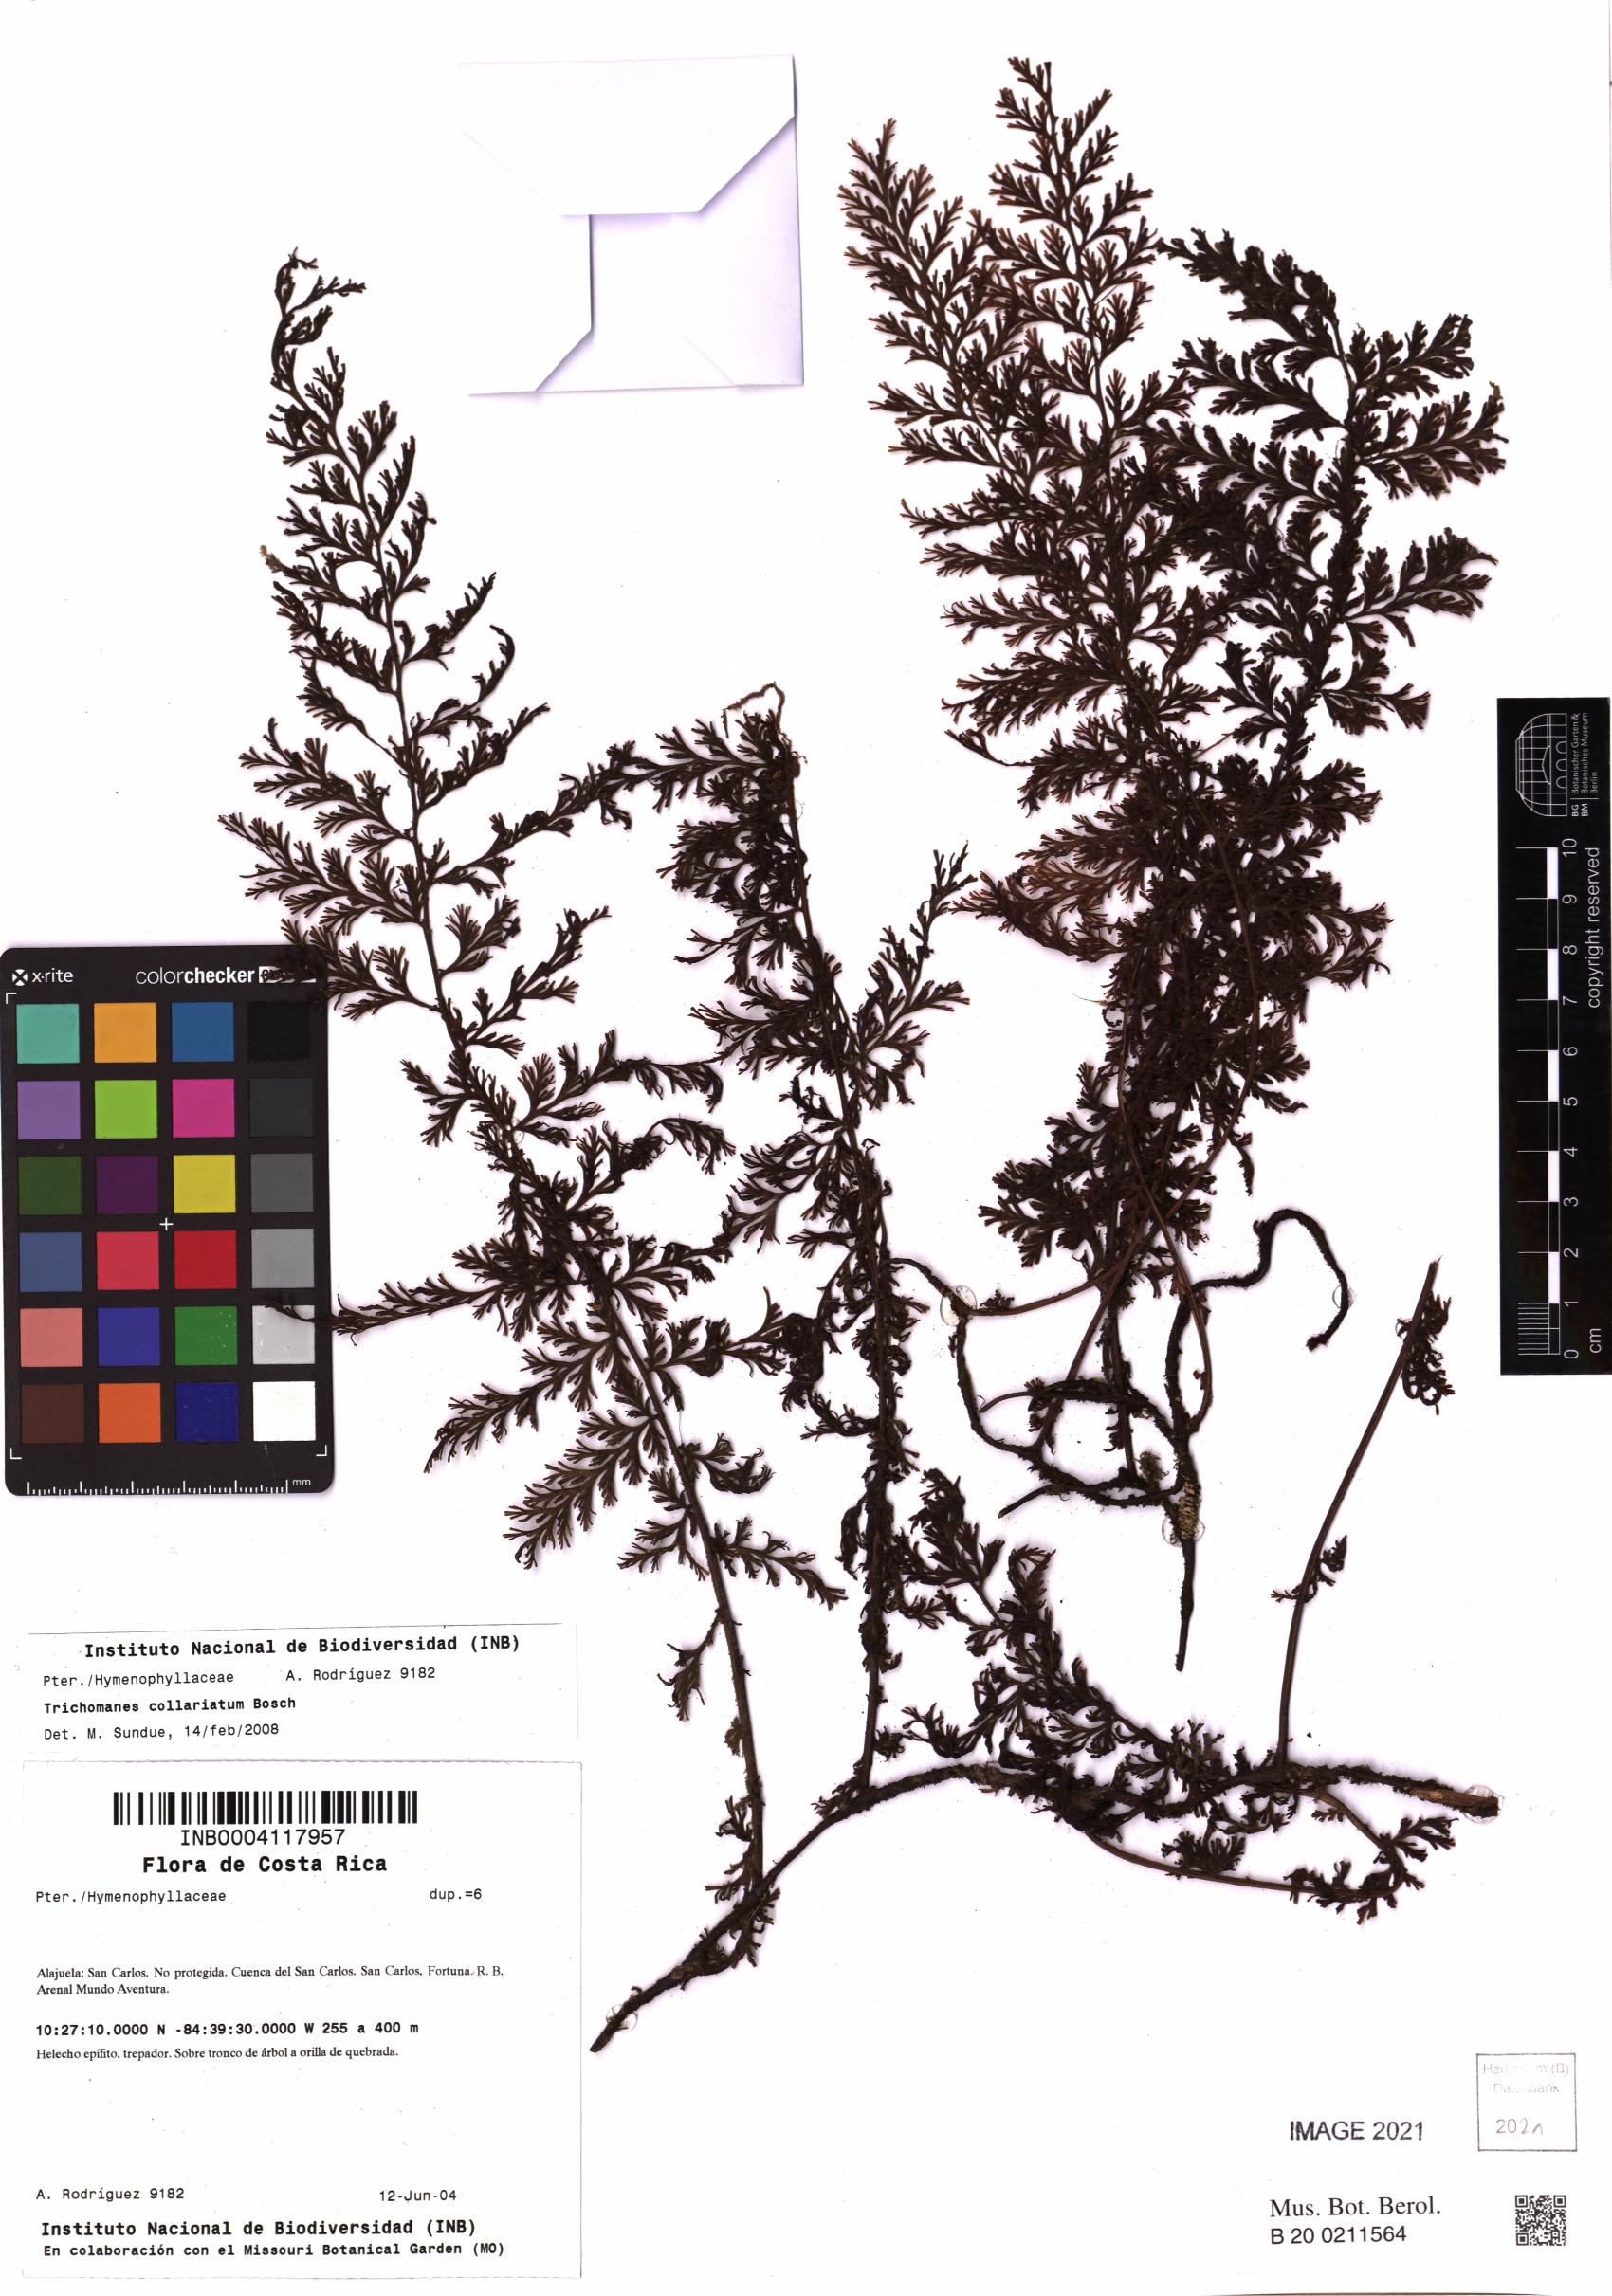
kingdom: Plantae
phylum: Tracheophyta
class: Polypodiopsida
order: Hymenophyllales
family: Hymenophyllaceae
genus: Vandenboschia
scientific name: Vandenboschia collariata
